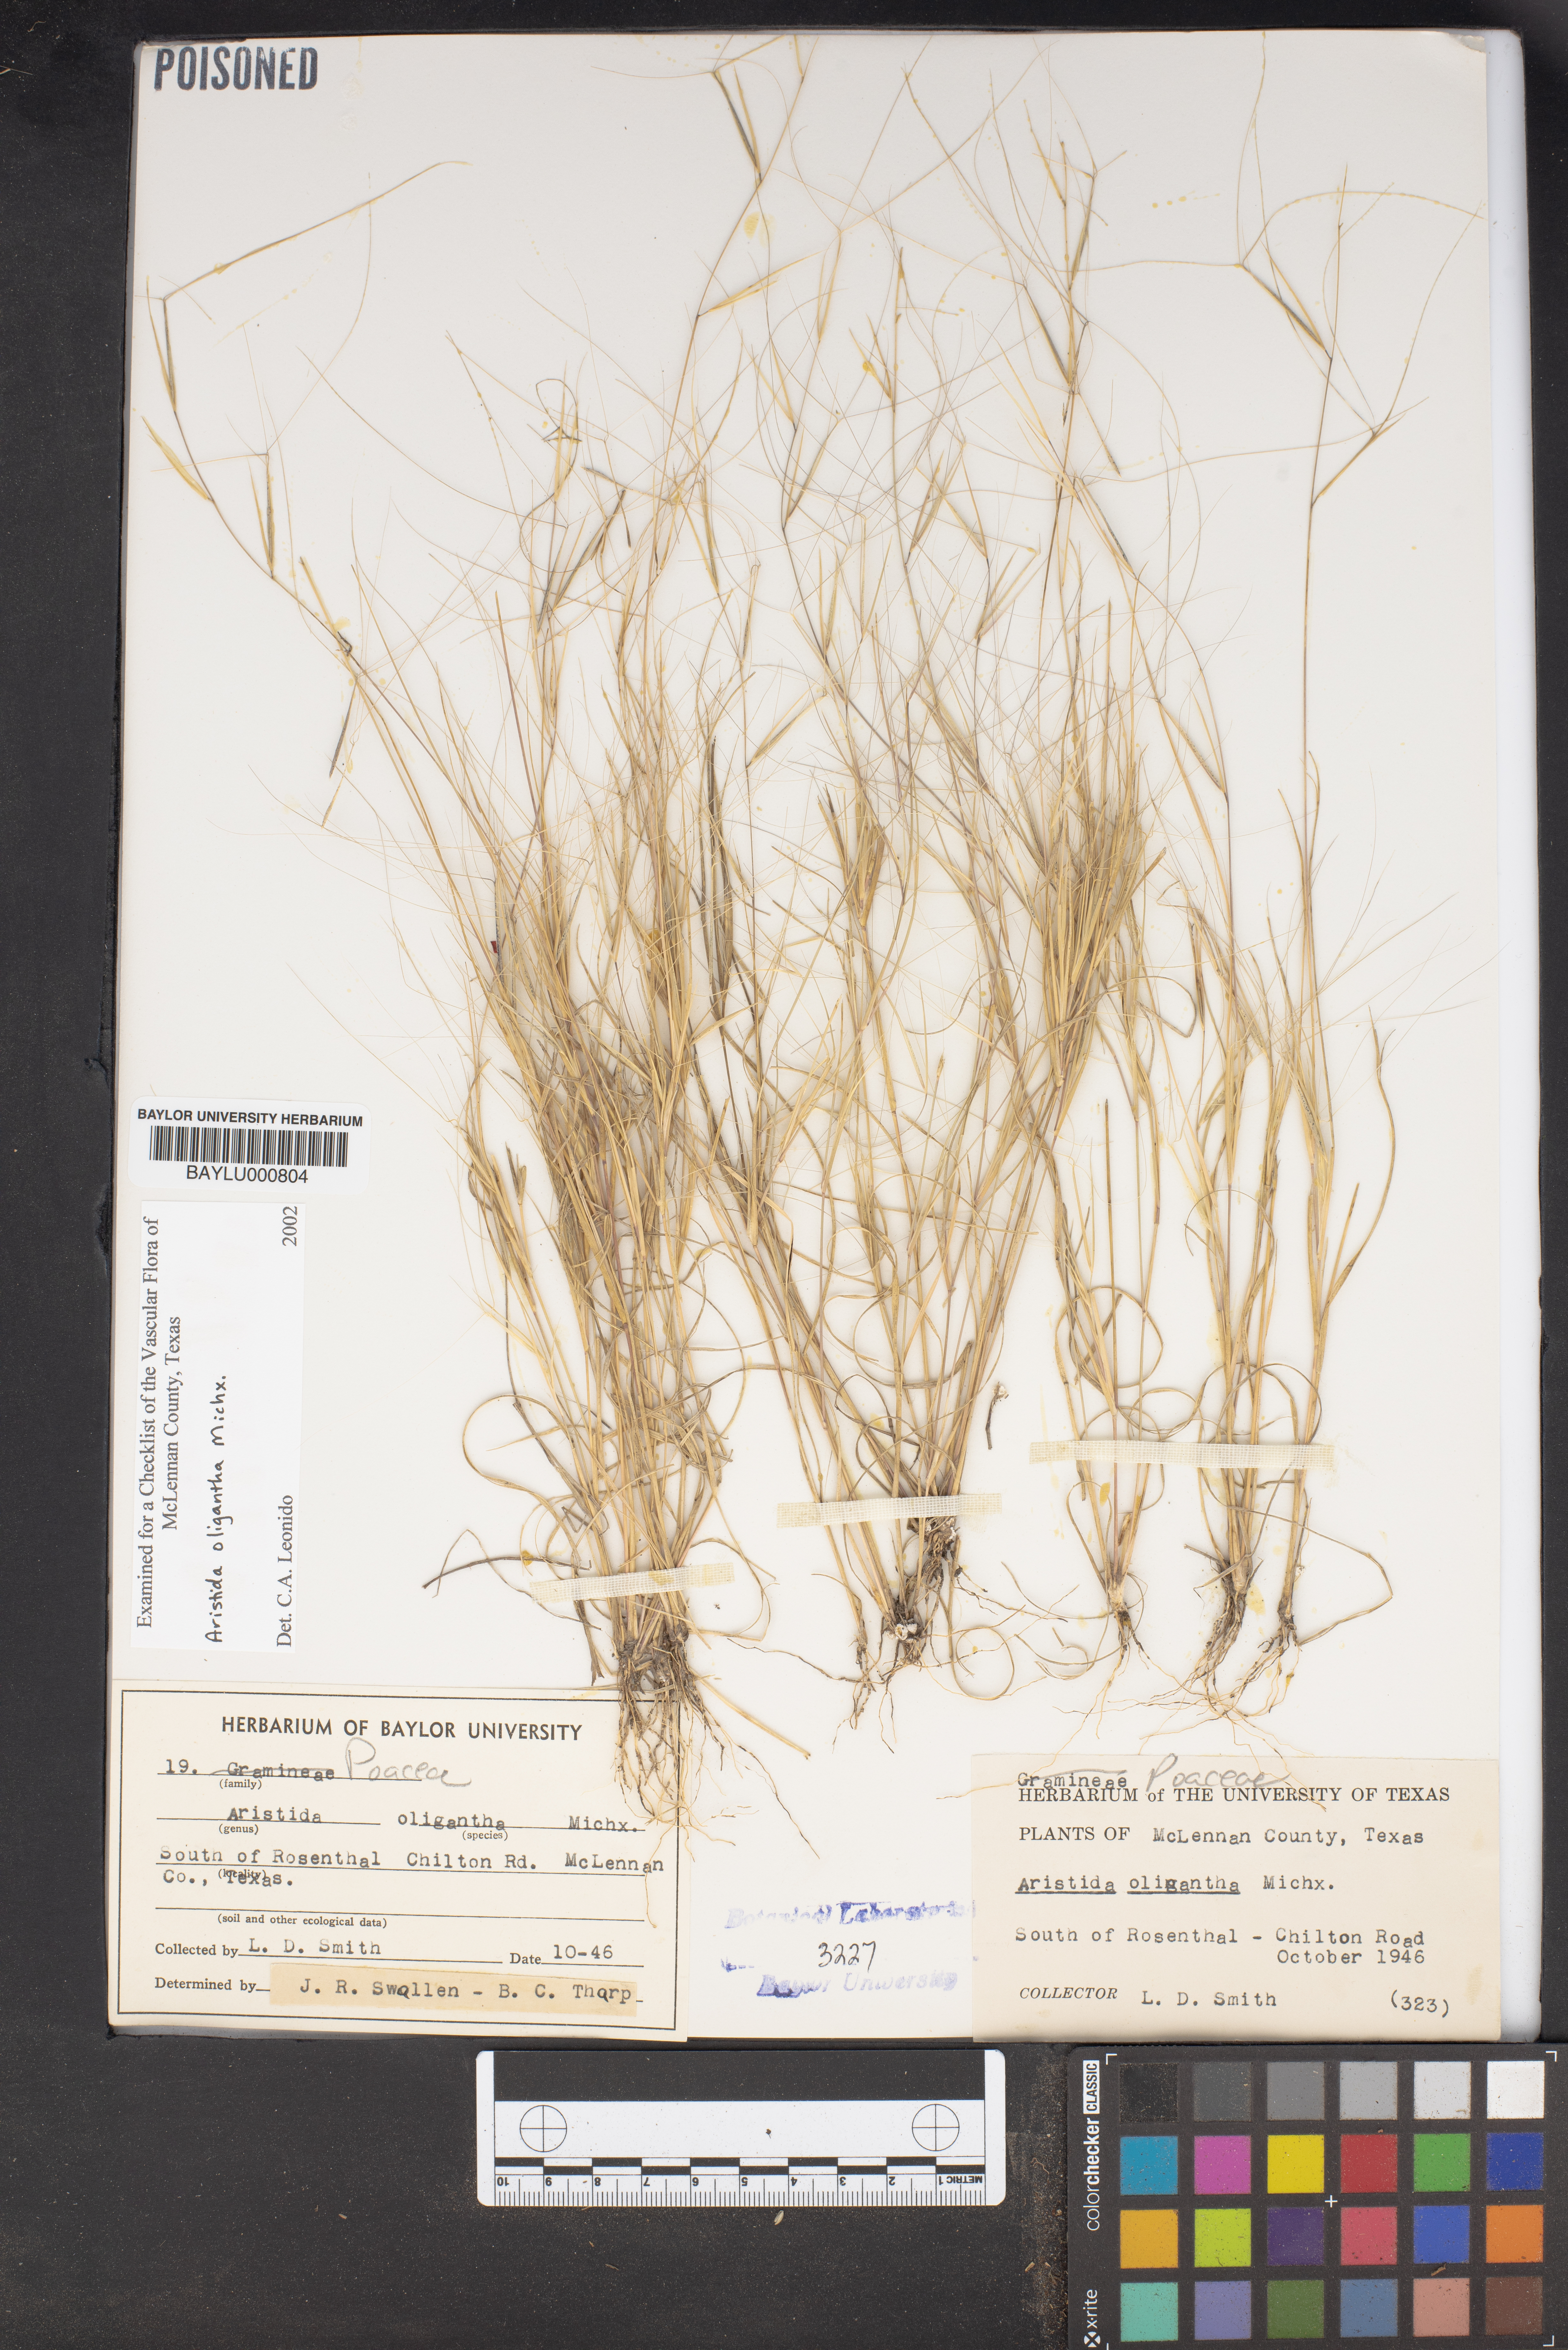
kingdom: Plantae
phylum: Tracheophyta
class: Liliopsida
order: Poales
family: Poaceae
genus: Aristida
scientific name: Aristida oligantha
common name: Few-flowered aristida
